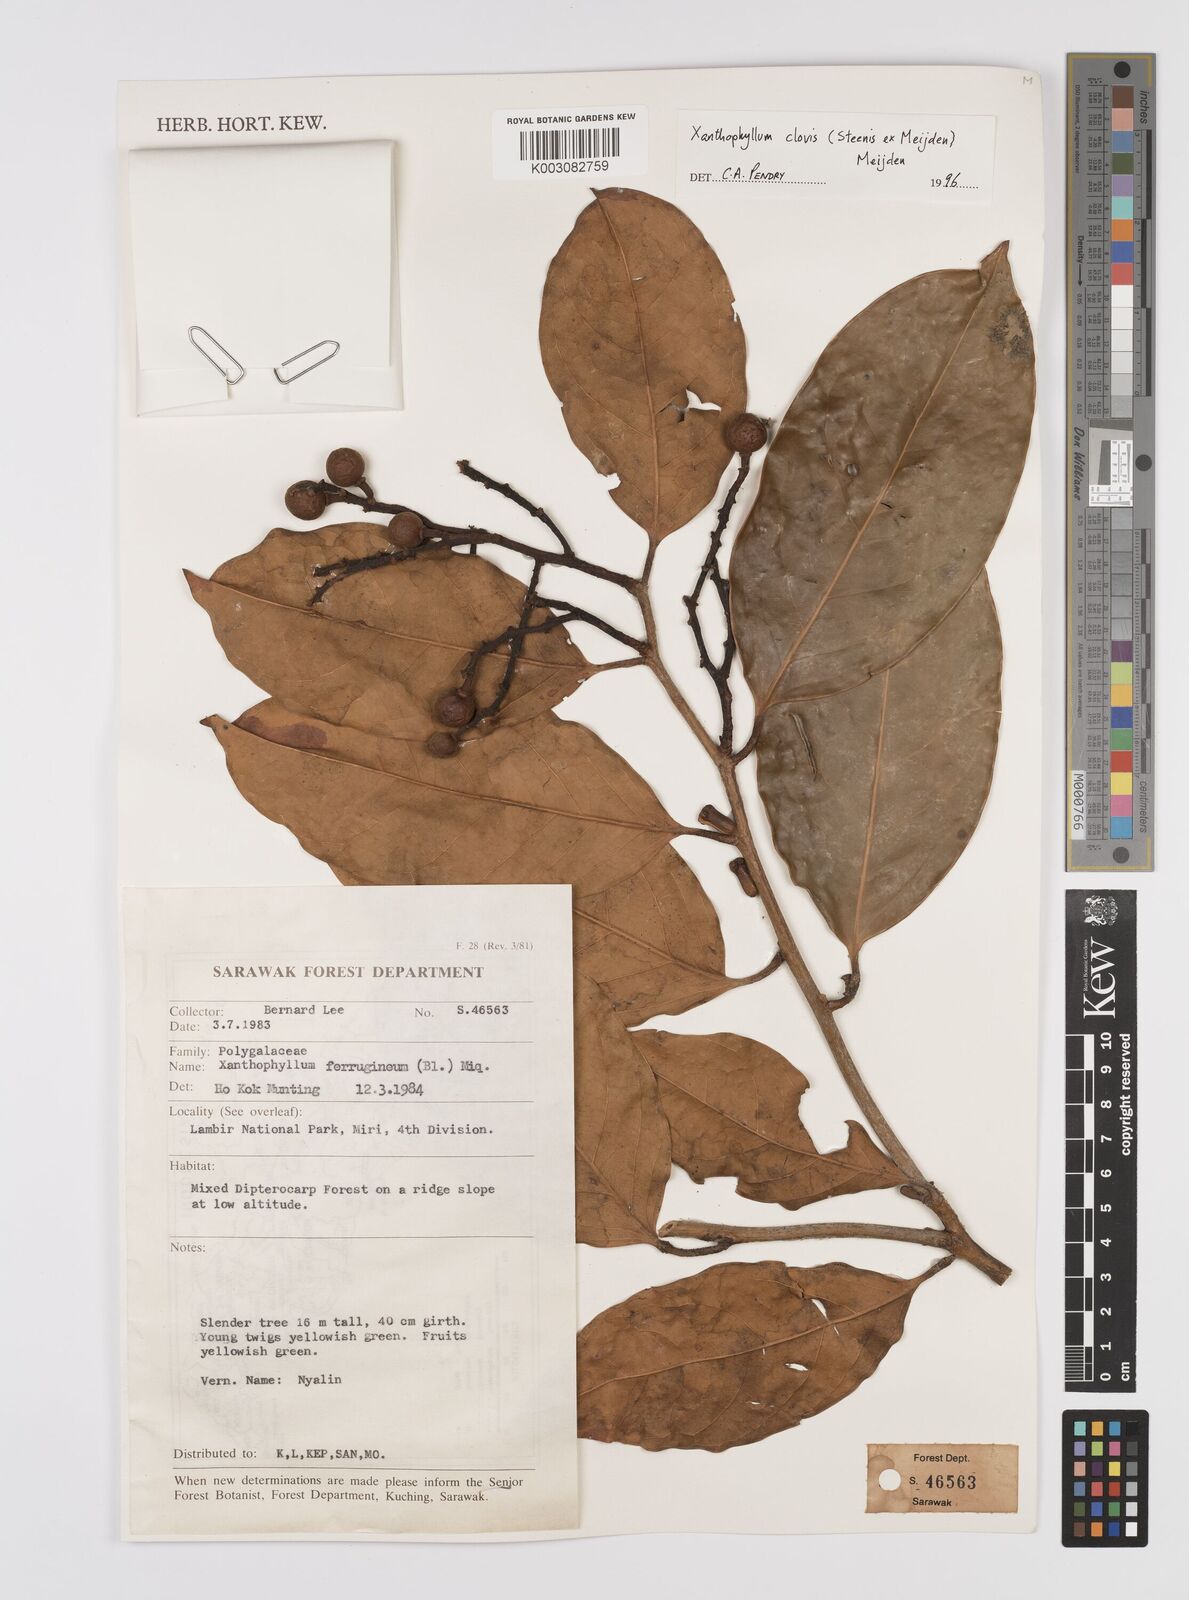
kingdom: Plantae
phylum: Tracheophyta
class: Magnoliopsida
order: Fabales
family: Polygalaceae
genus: Xanthophyllum
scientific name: Xanthophyllum clovis
